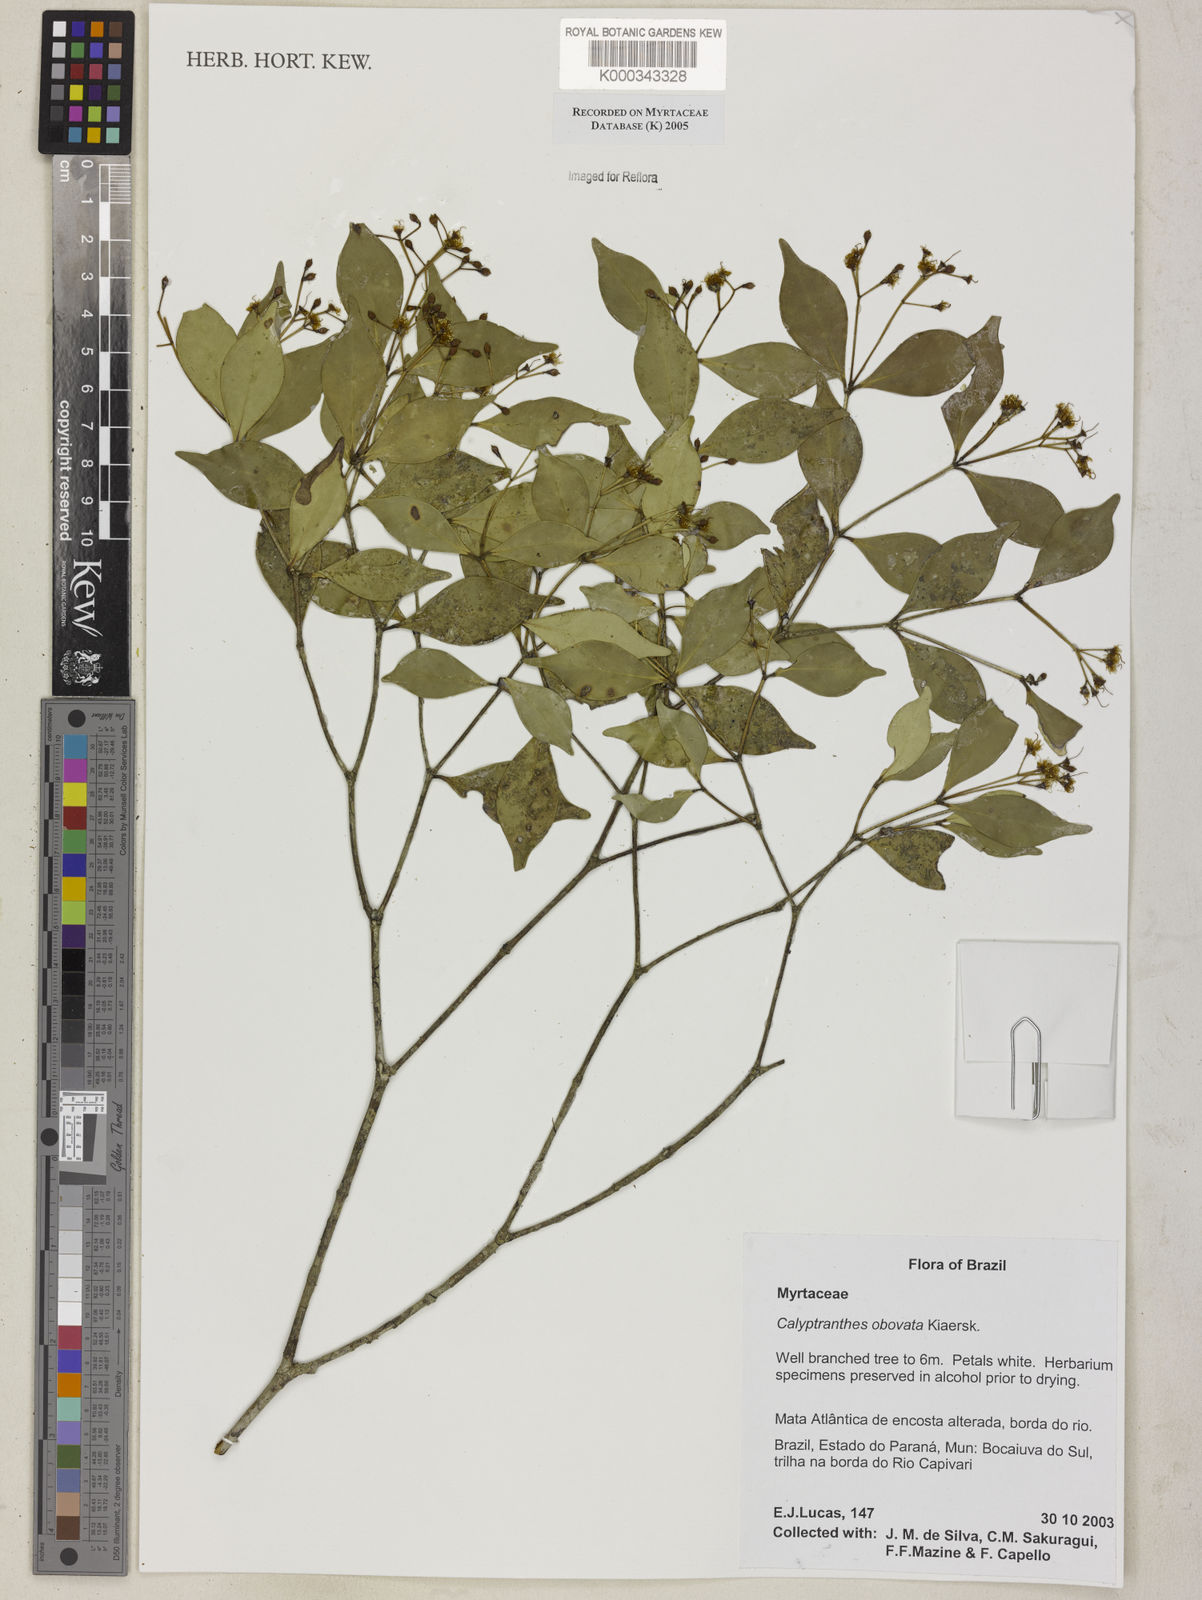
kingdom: Plantae
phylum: Tracheophyta
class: Magnoliopsida
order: Myrtales
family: Myrtaceae
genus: Myrcia
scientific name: Myrcia legrandii
